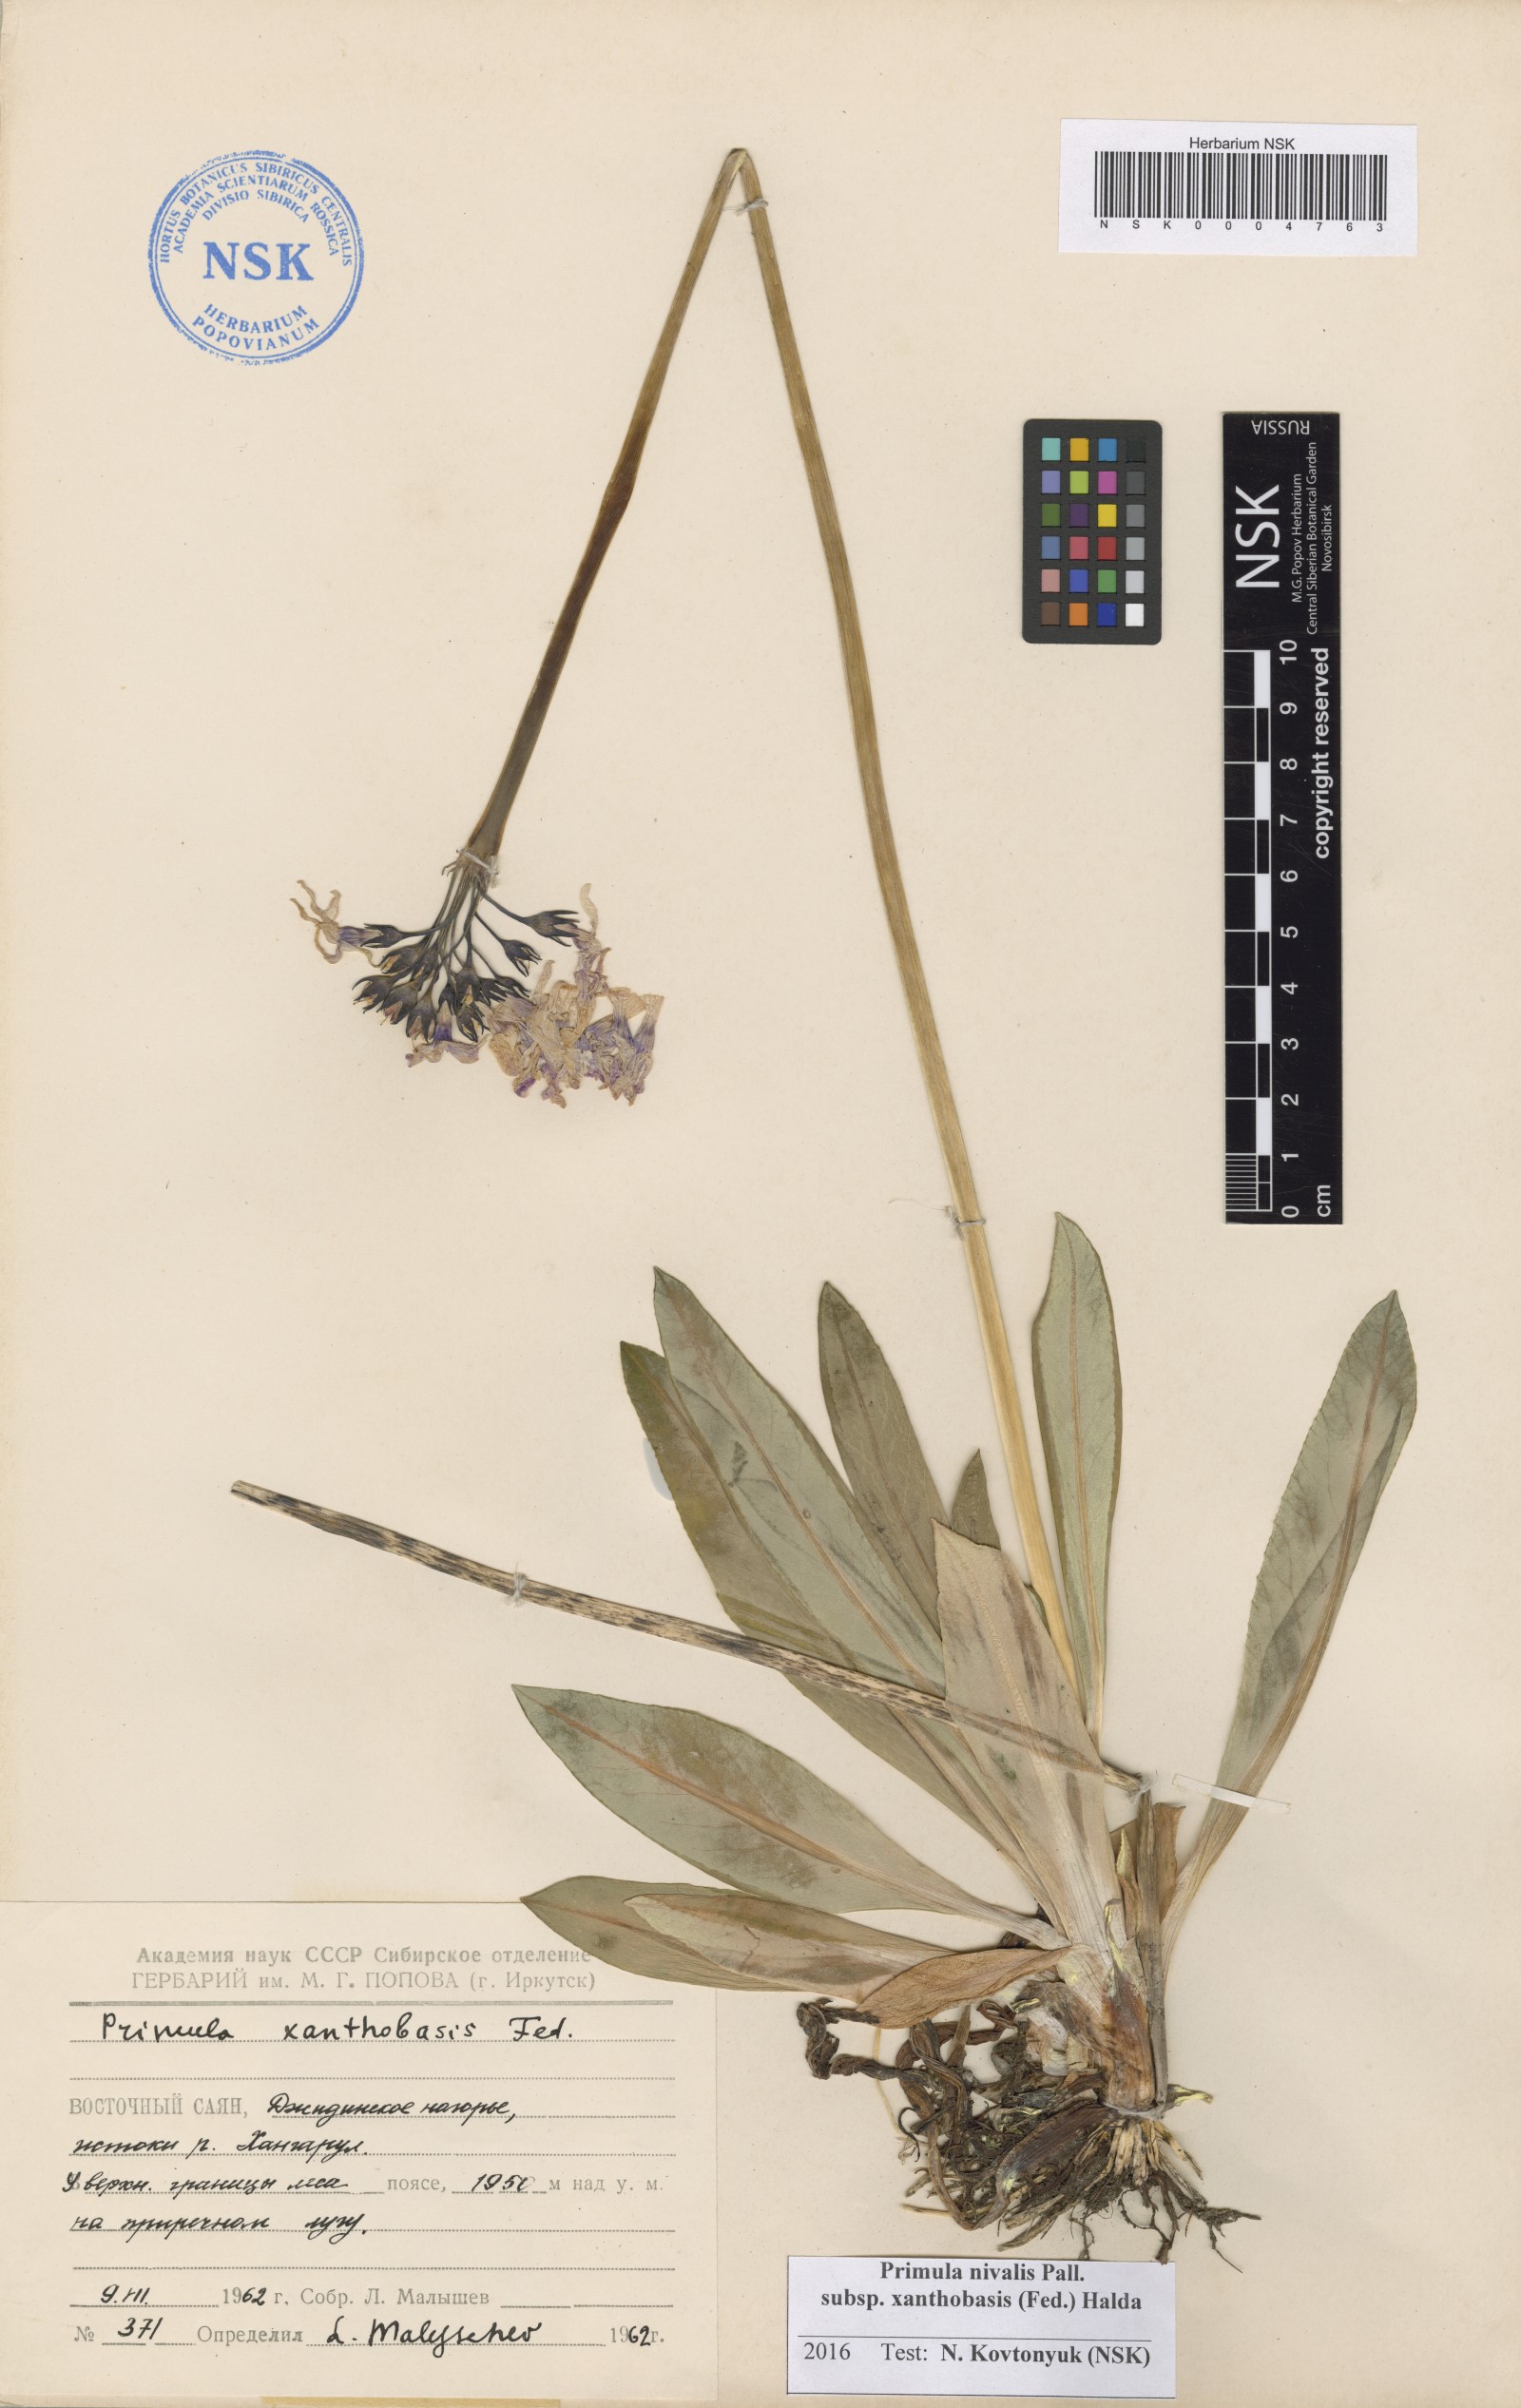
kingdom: Plantae
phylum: Tracheophyta
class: Magnoliopsida
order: Ericales
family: Primulaceae
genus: Primula
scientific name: Primula nivalis
